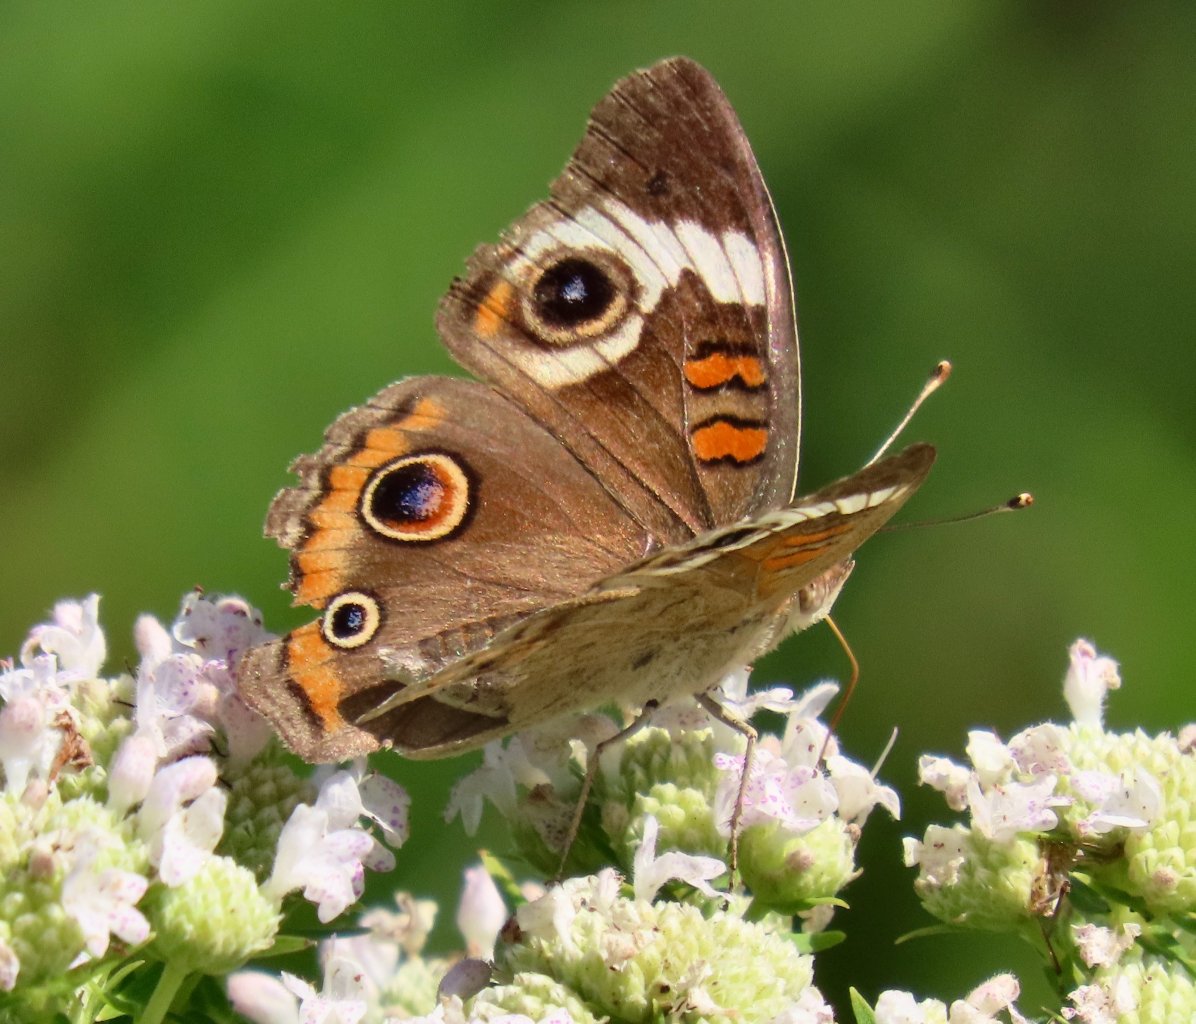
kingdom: Animalia
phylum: Arthropoda
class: Insecta
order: Lepidoptera
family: Nymphalidae
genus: Junonia
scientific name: Junonia coenia
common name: Common Buckeye
